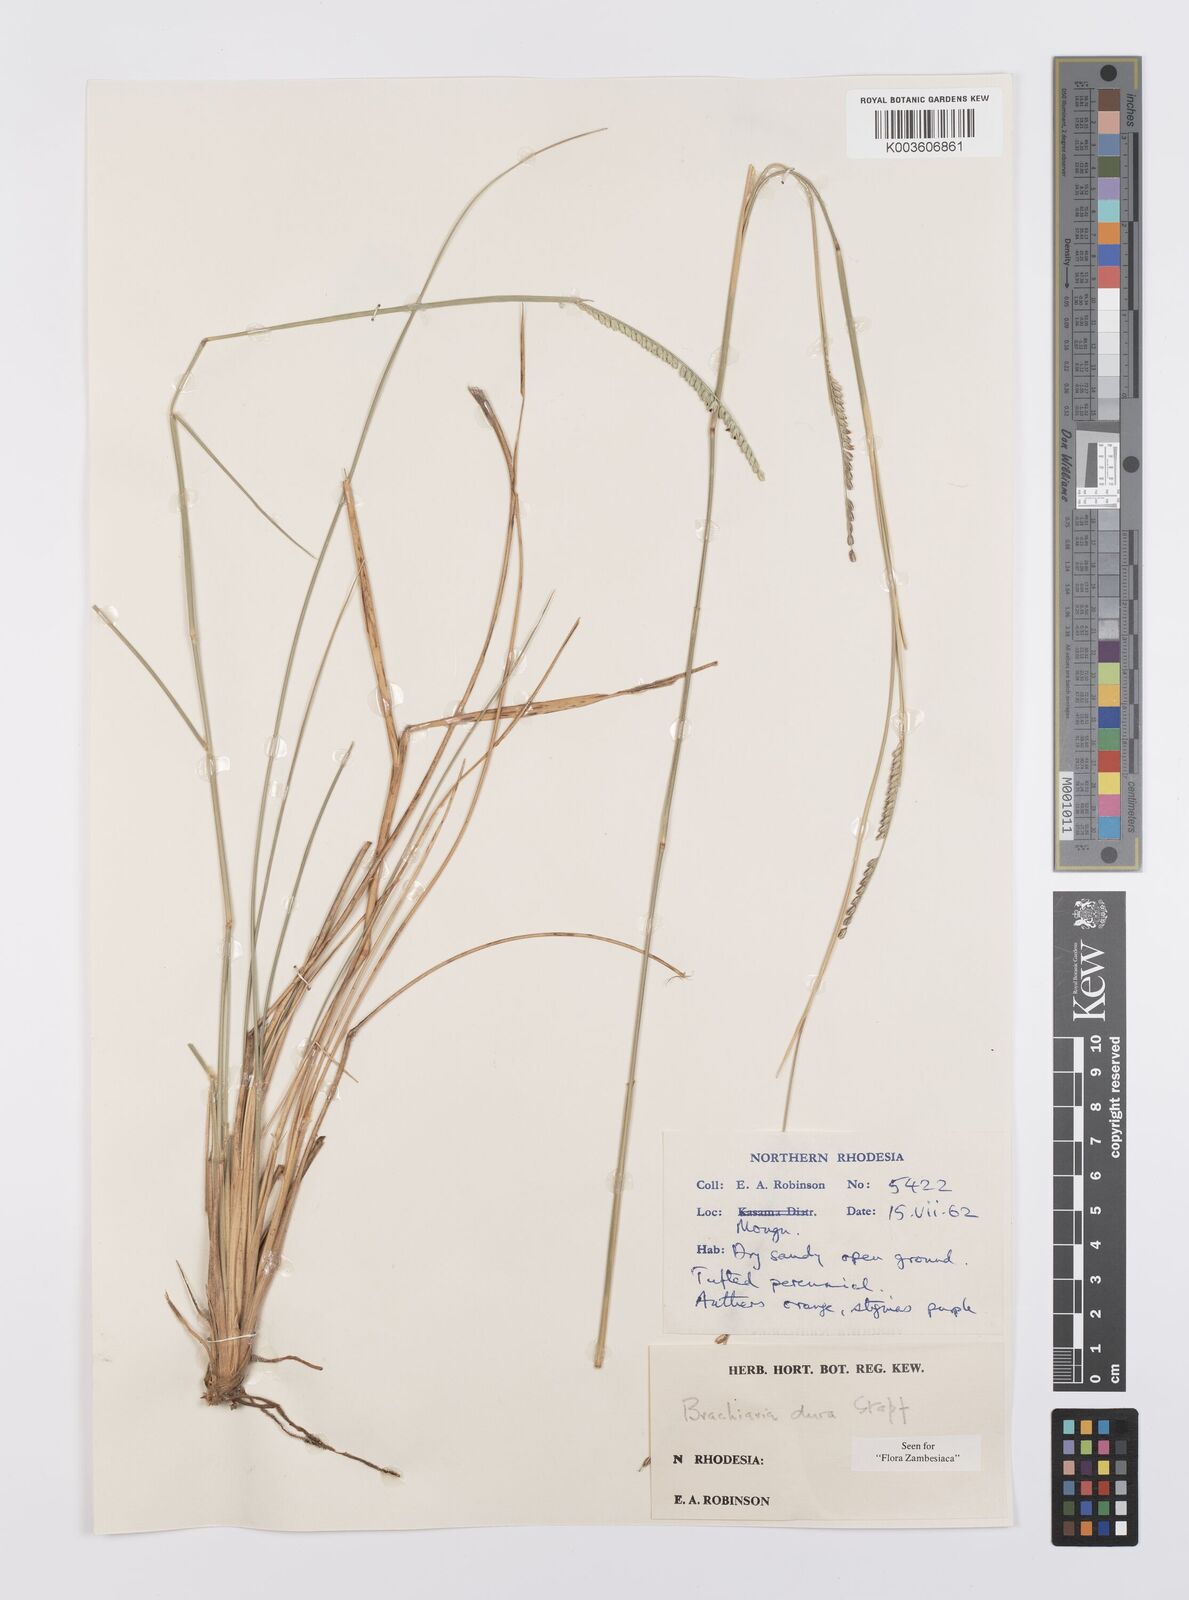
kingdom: Plantae
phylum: Tracheophyta
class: Liliopsida
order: Poales
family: Poaceae
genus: Urochloa
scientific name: Urochloa dura
